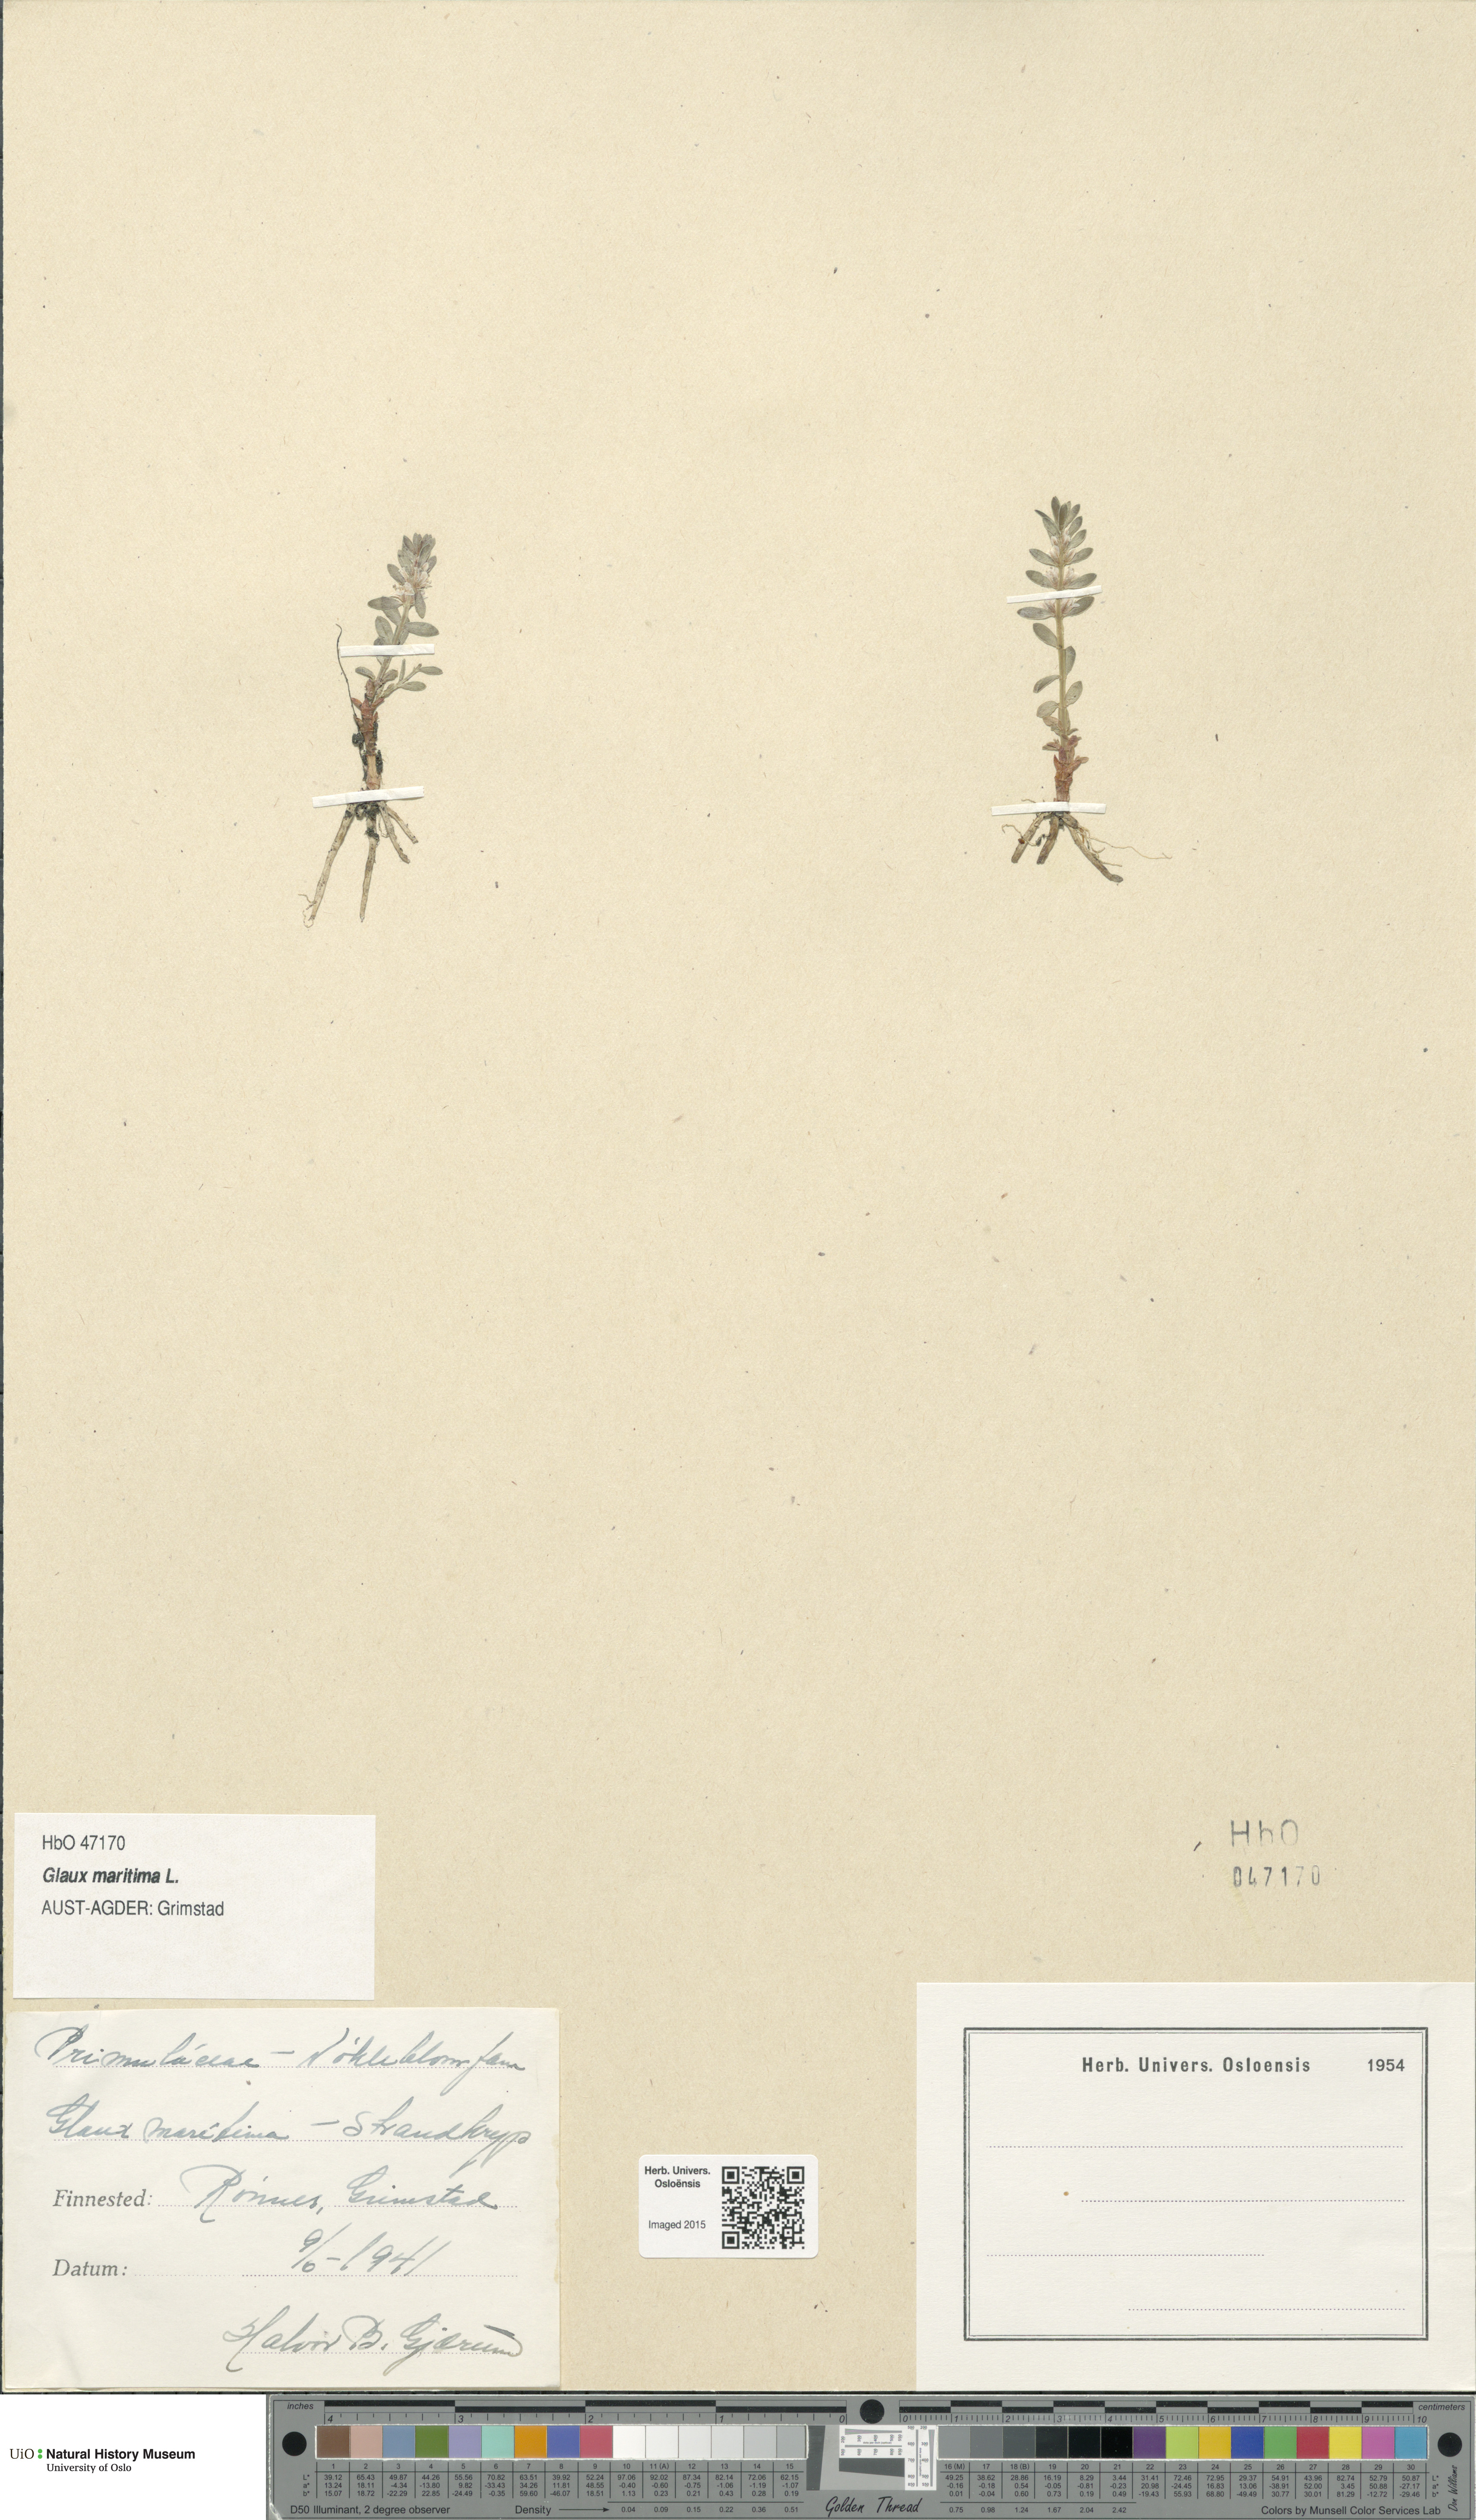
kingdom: Plantae
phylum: Tracheophyta
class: Magnoliopsida
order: Ericales
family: Primulaceae
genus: Lysimachia
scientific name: Lysimachia maritima
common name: Sea milkwort
